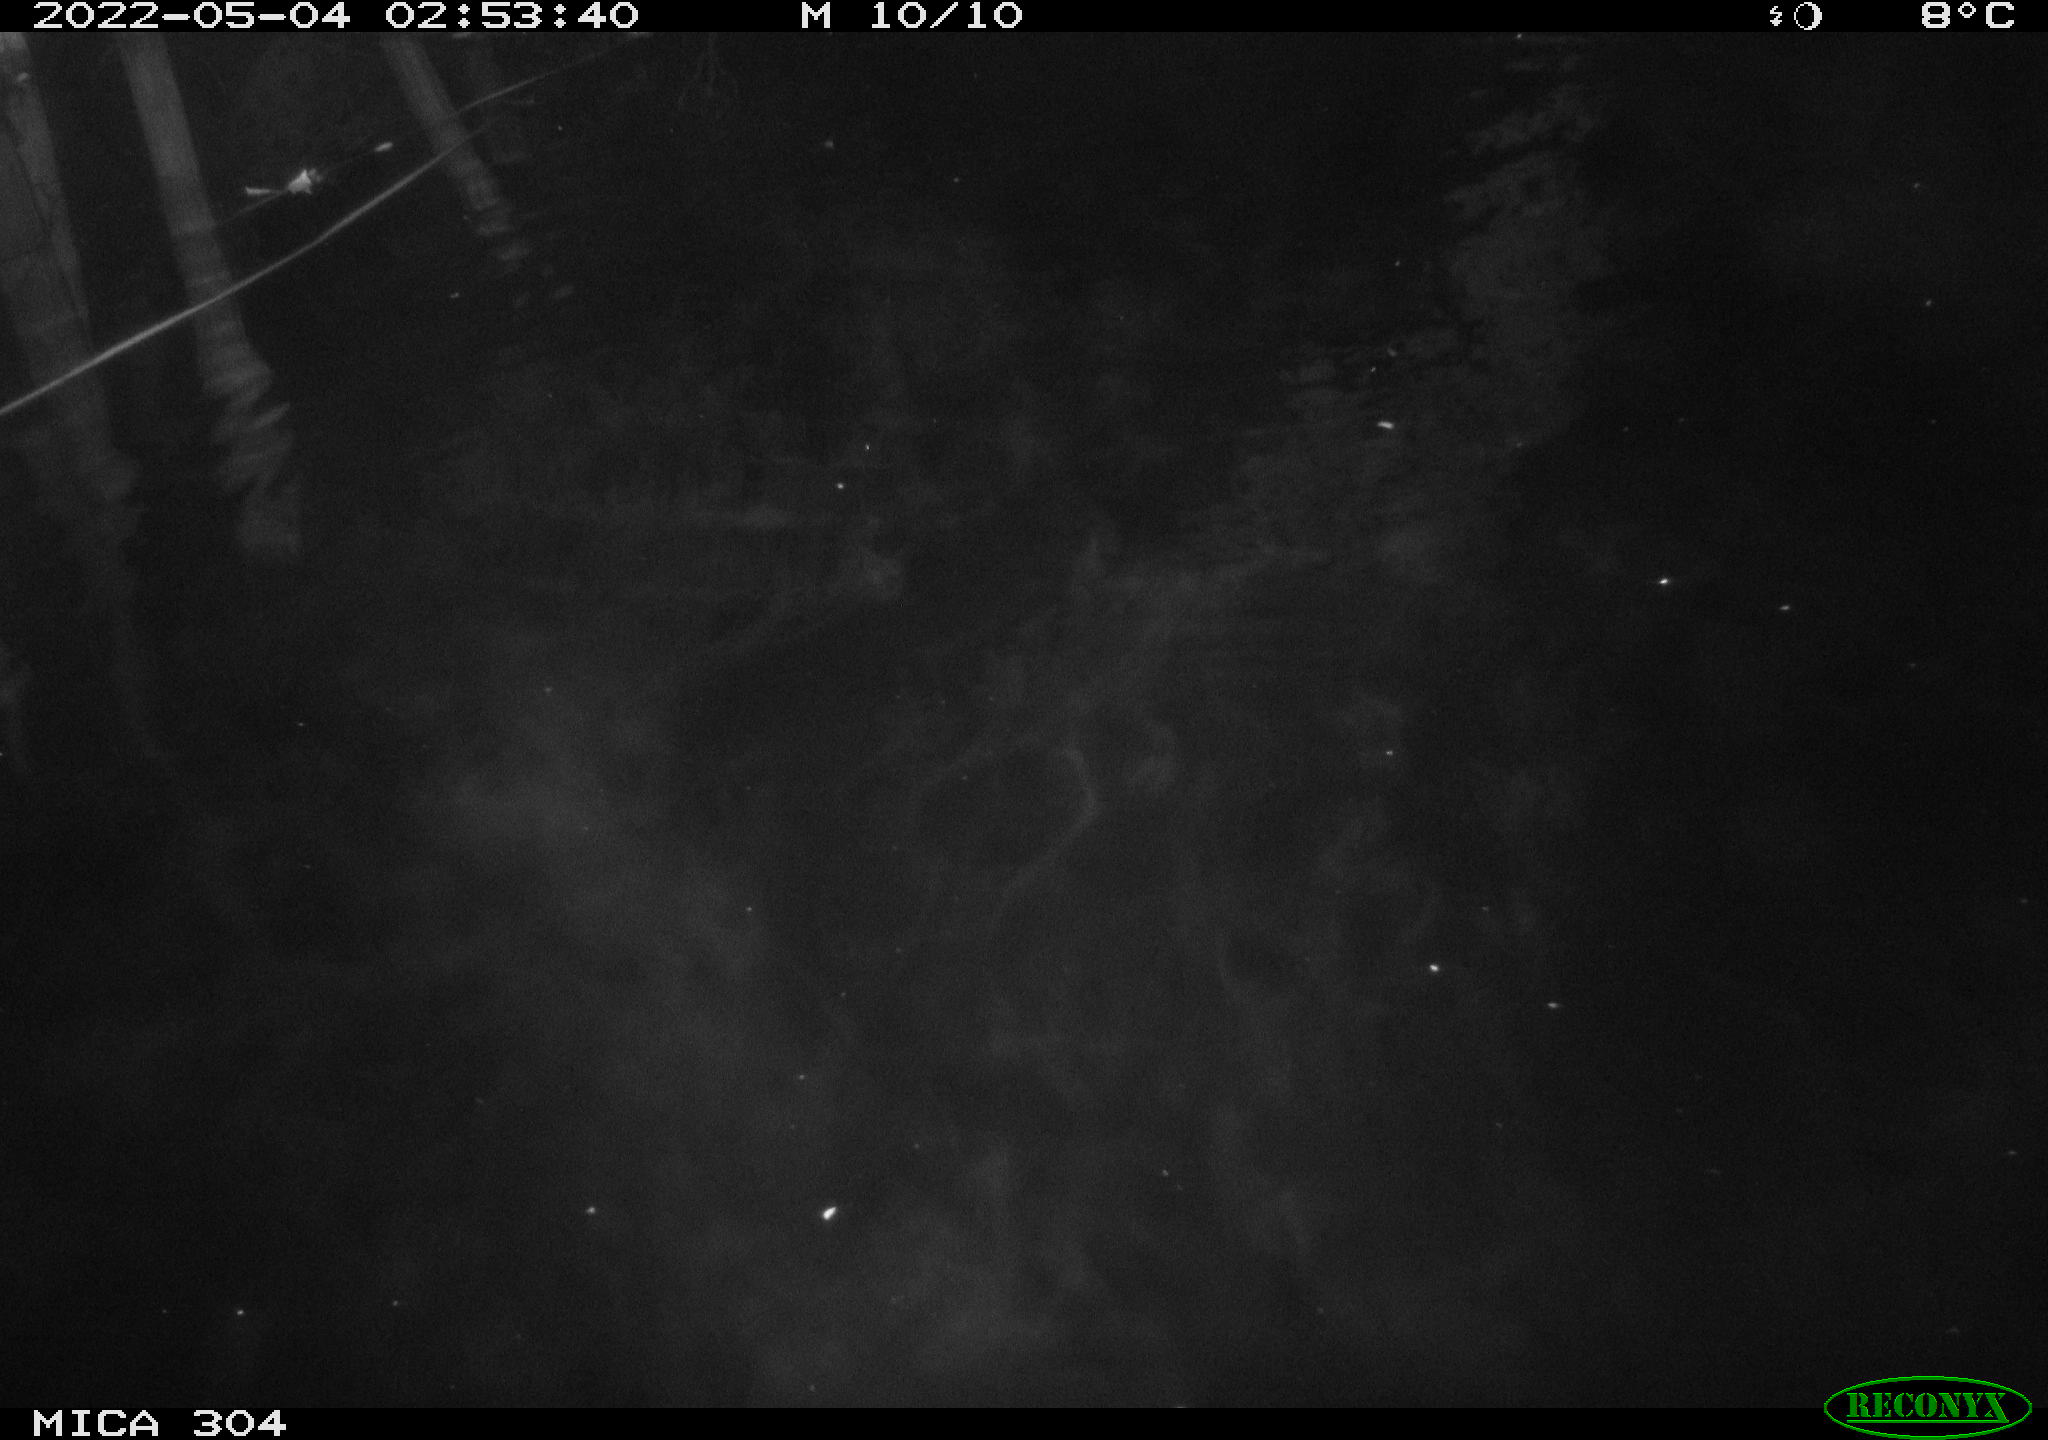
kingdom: Animalia
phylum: Chordata
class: Mammalia
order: Rodentia
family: Cricetidae
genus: Ondatra
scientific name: Ondatra zibethicus
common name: Muskrat
